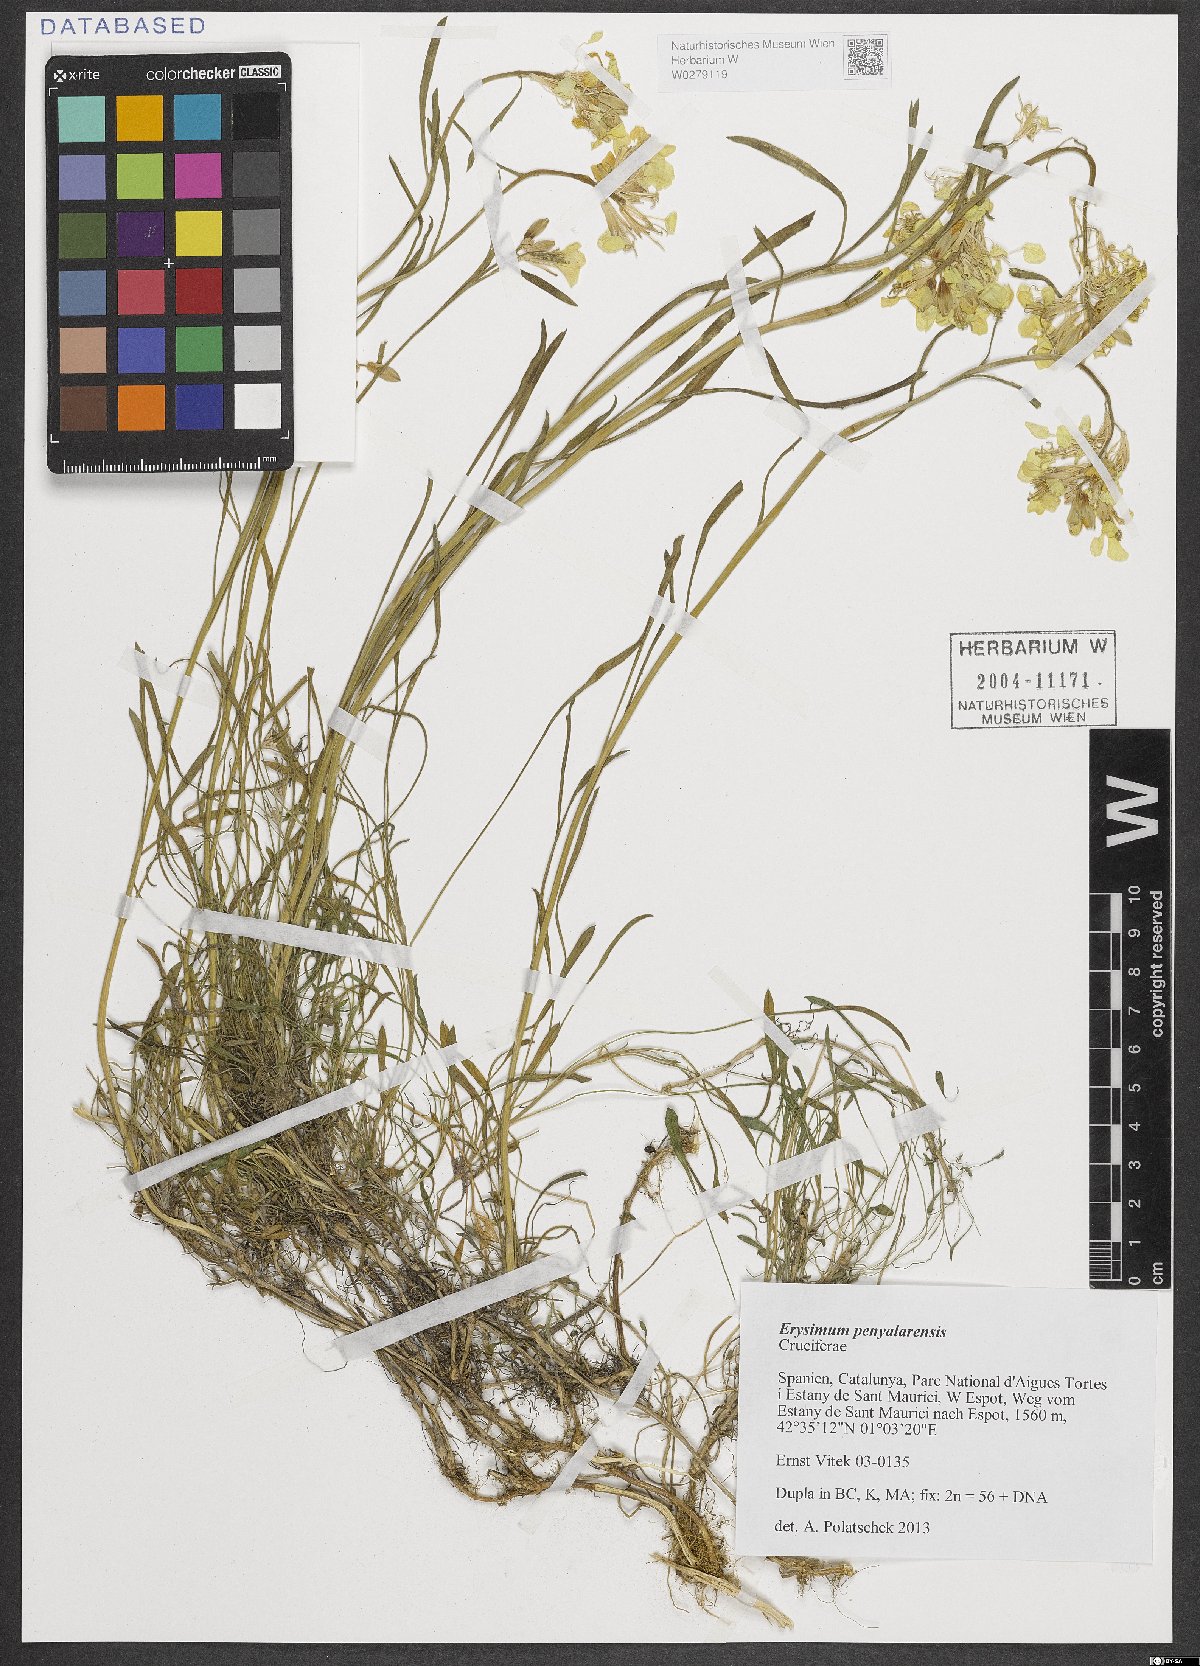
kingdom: Plantae
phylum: Tracheophyta
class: Magnoliopsida
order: Brassicales
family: Brassicaceae
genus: Erysimum
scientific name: Erysimum penyalarense
